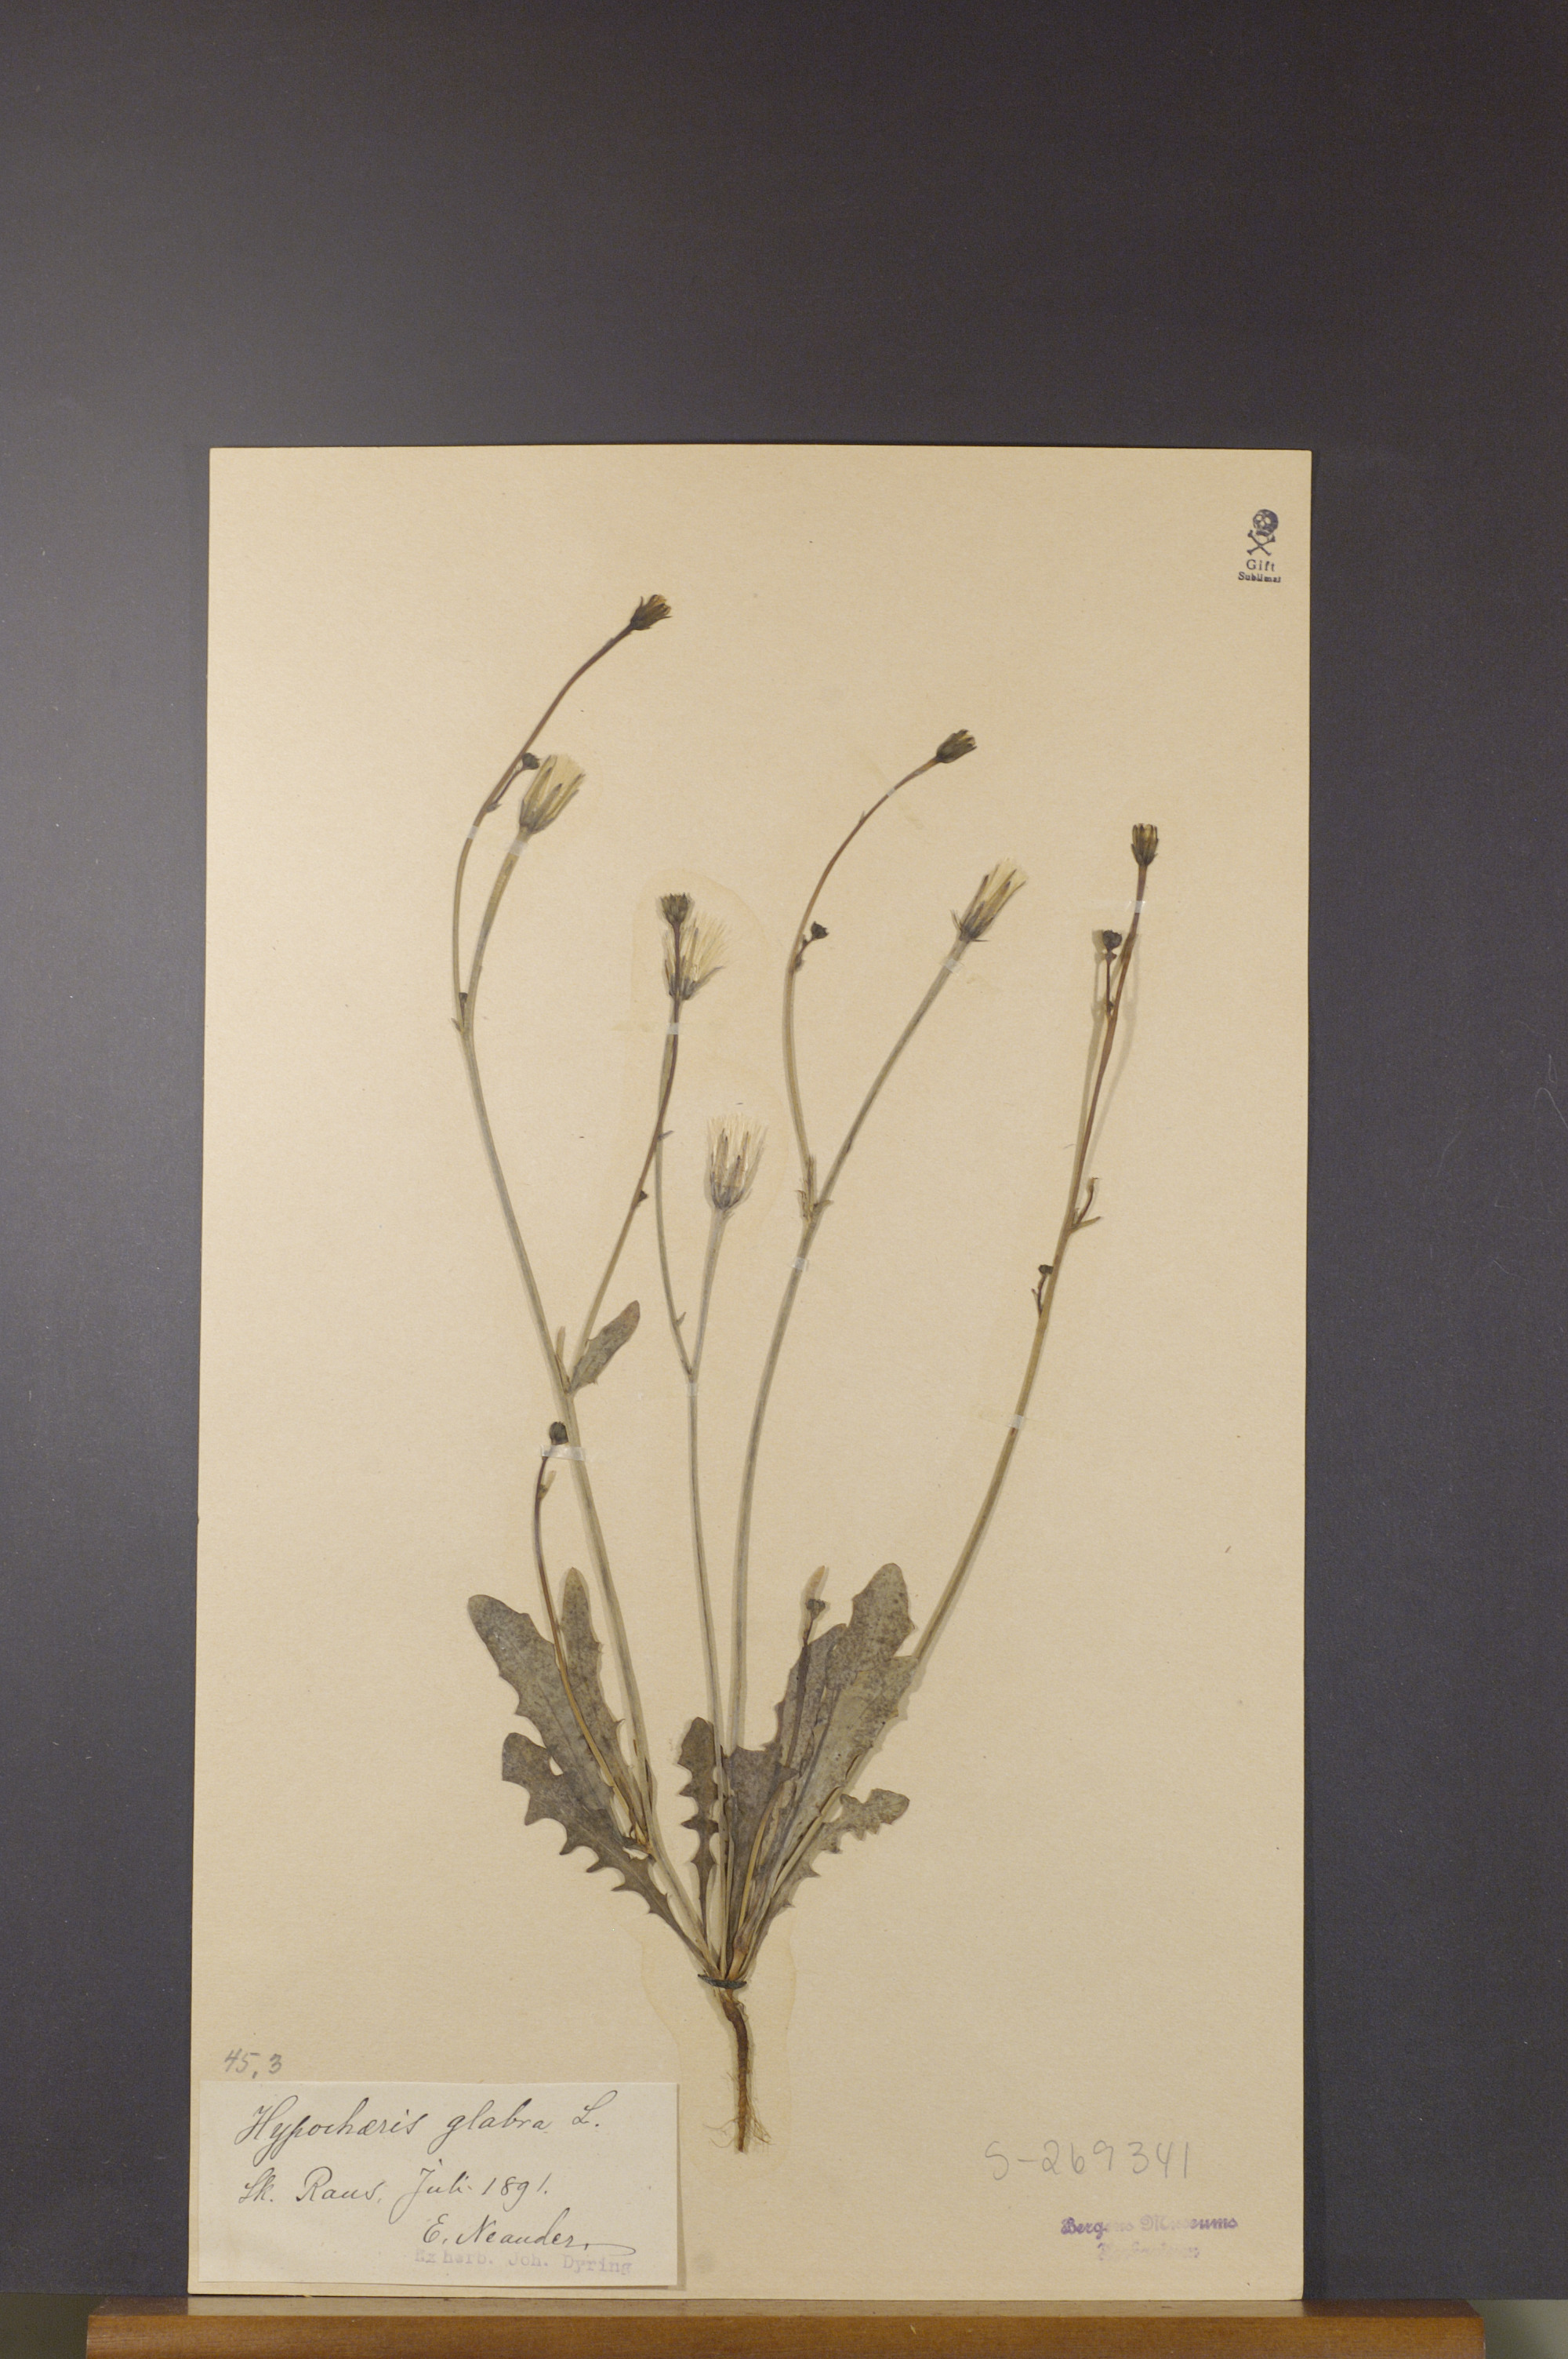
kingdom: Plantae
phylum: Tracheophyta
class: Magnoliopsida
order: Asterales
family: Asteraceae
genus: Hypochaeris
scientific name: Hypochaeris glabra
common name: Smooth catsear
